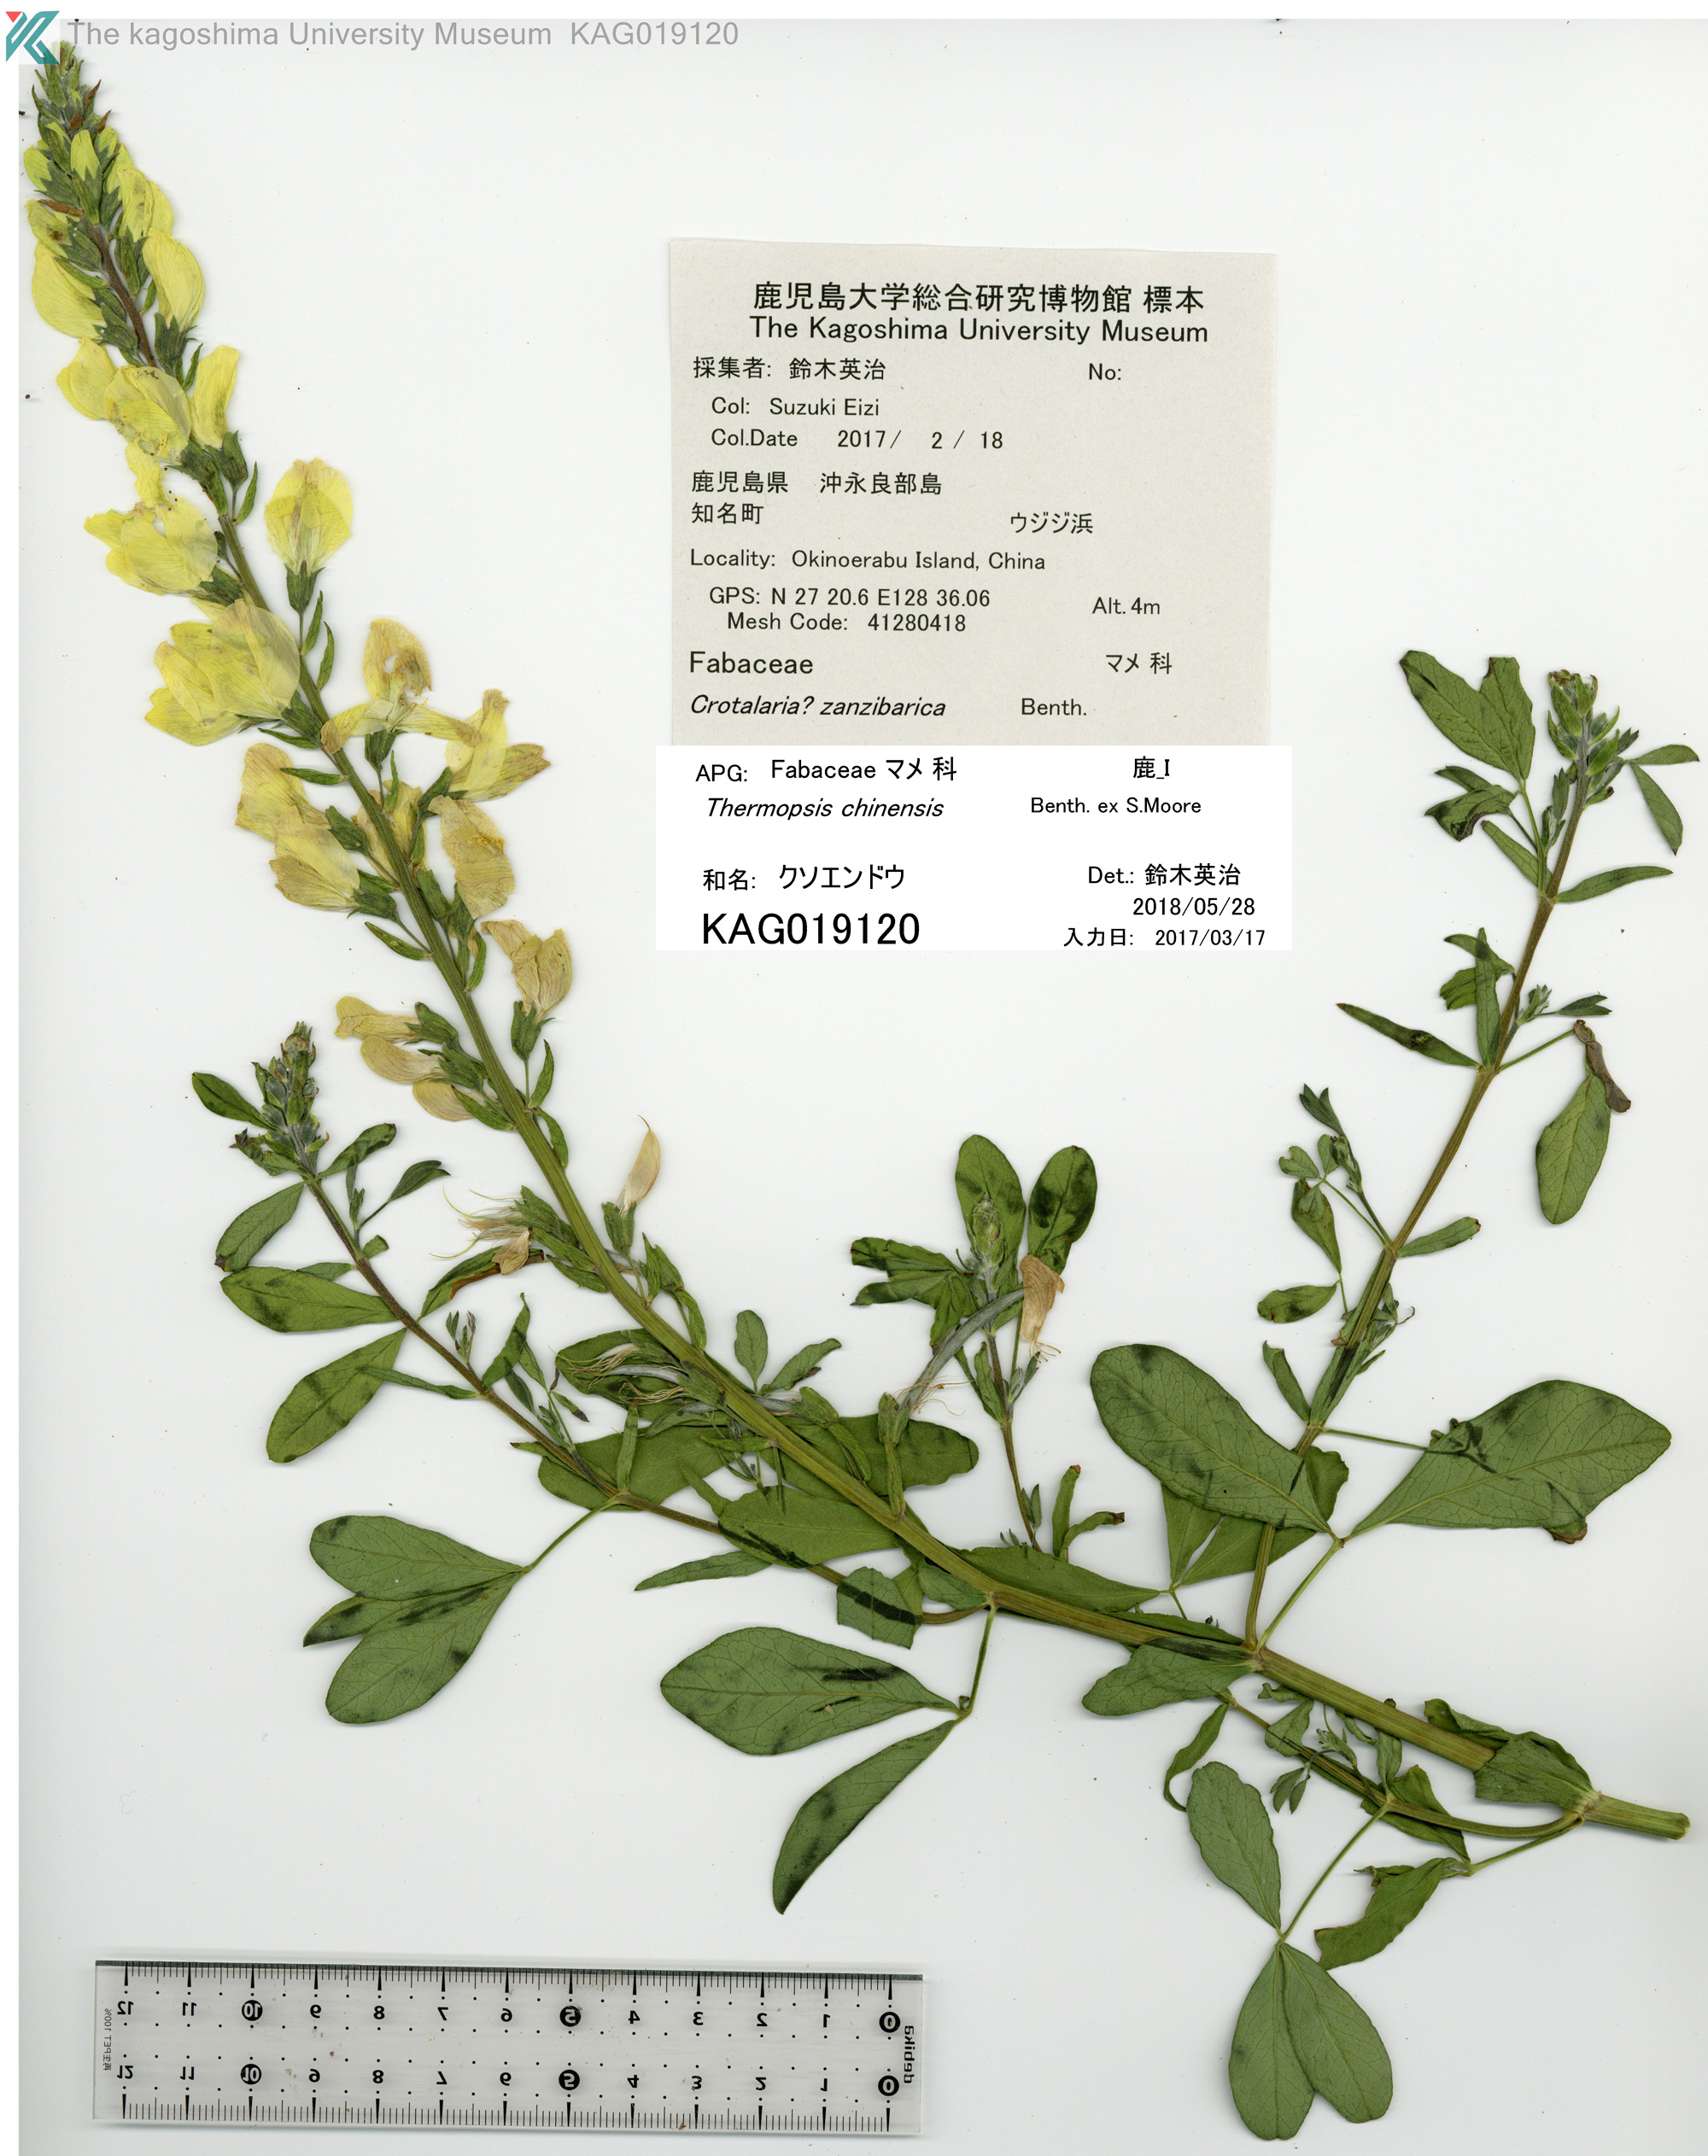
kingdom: Plantae
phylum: Tracheophyta
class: Magnoliopsida
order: Fabales
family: Fabaceae
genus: Thermopsis
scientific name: Thermopsis chinensis
